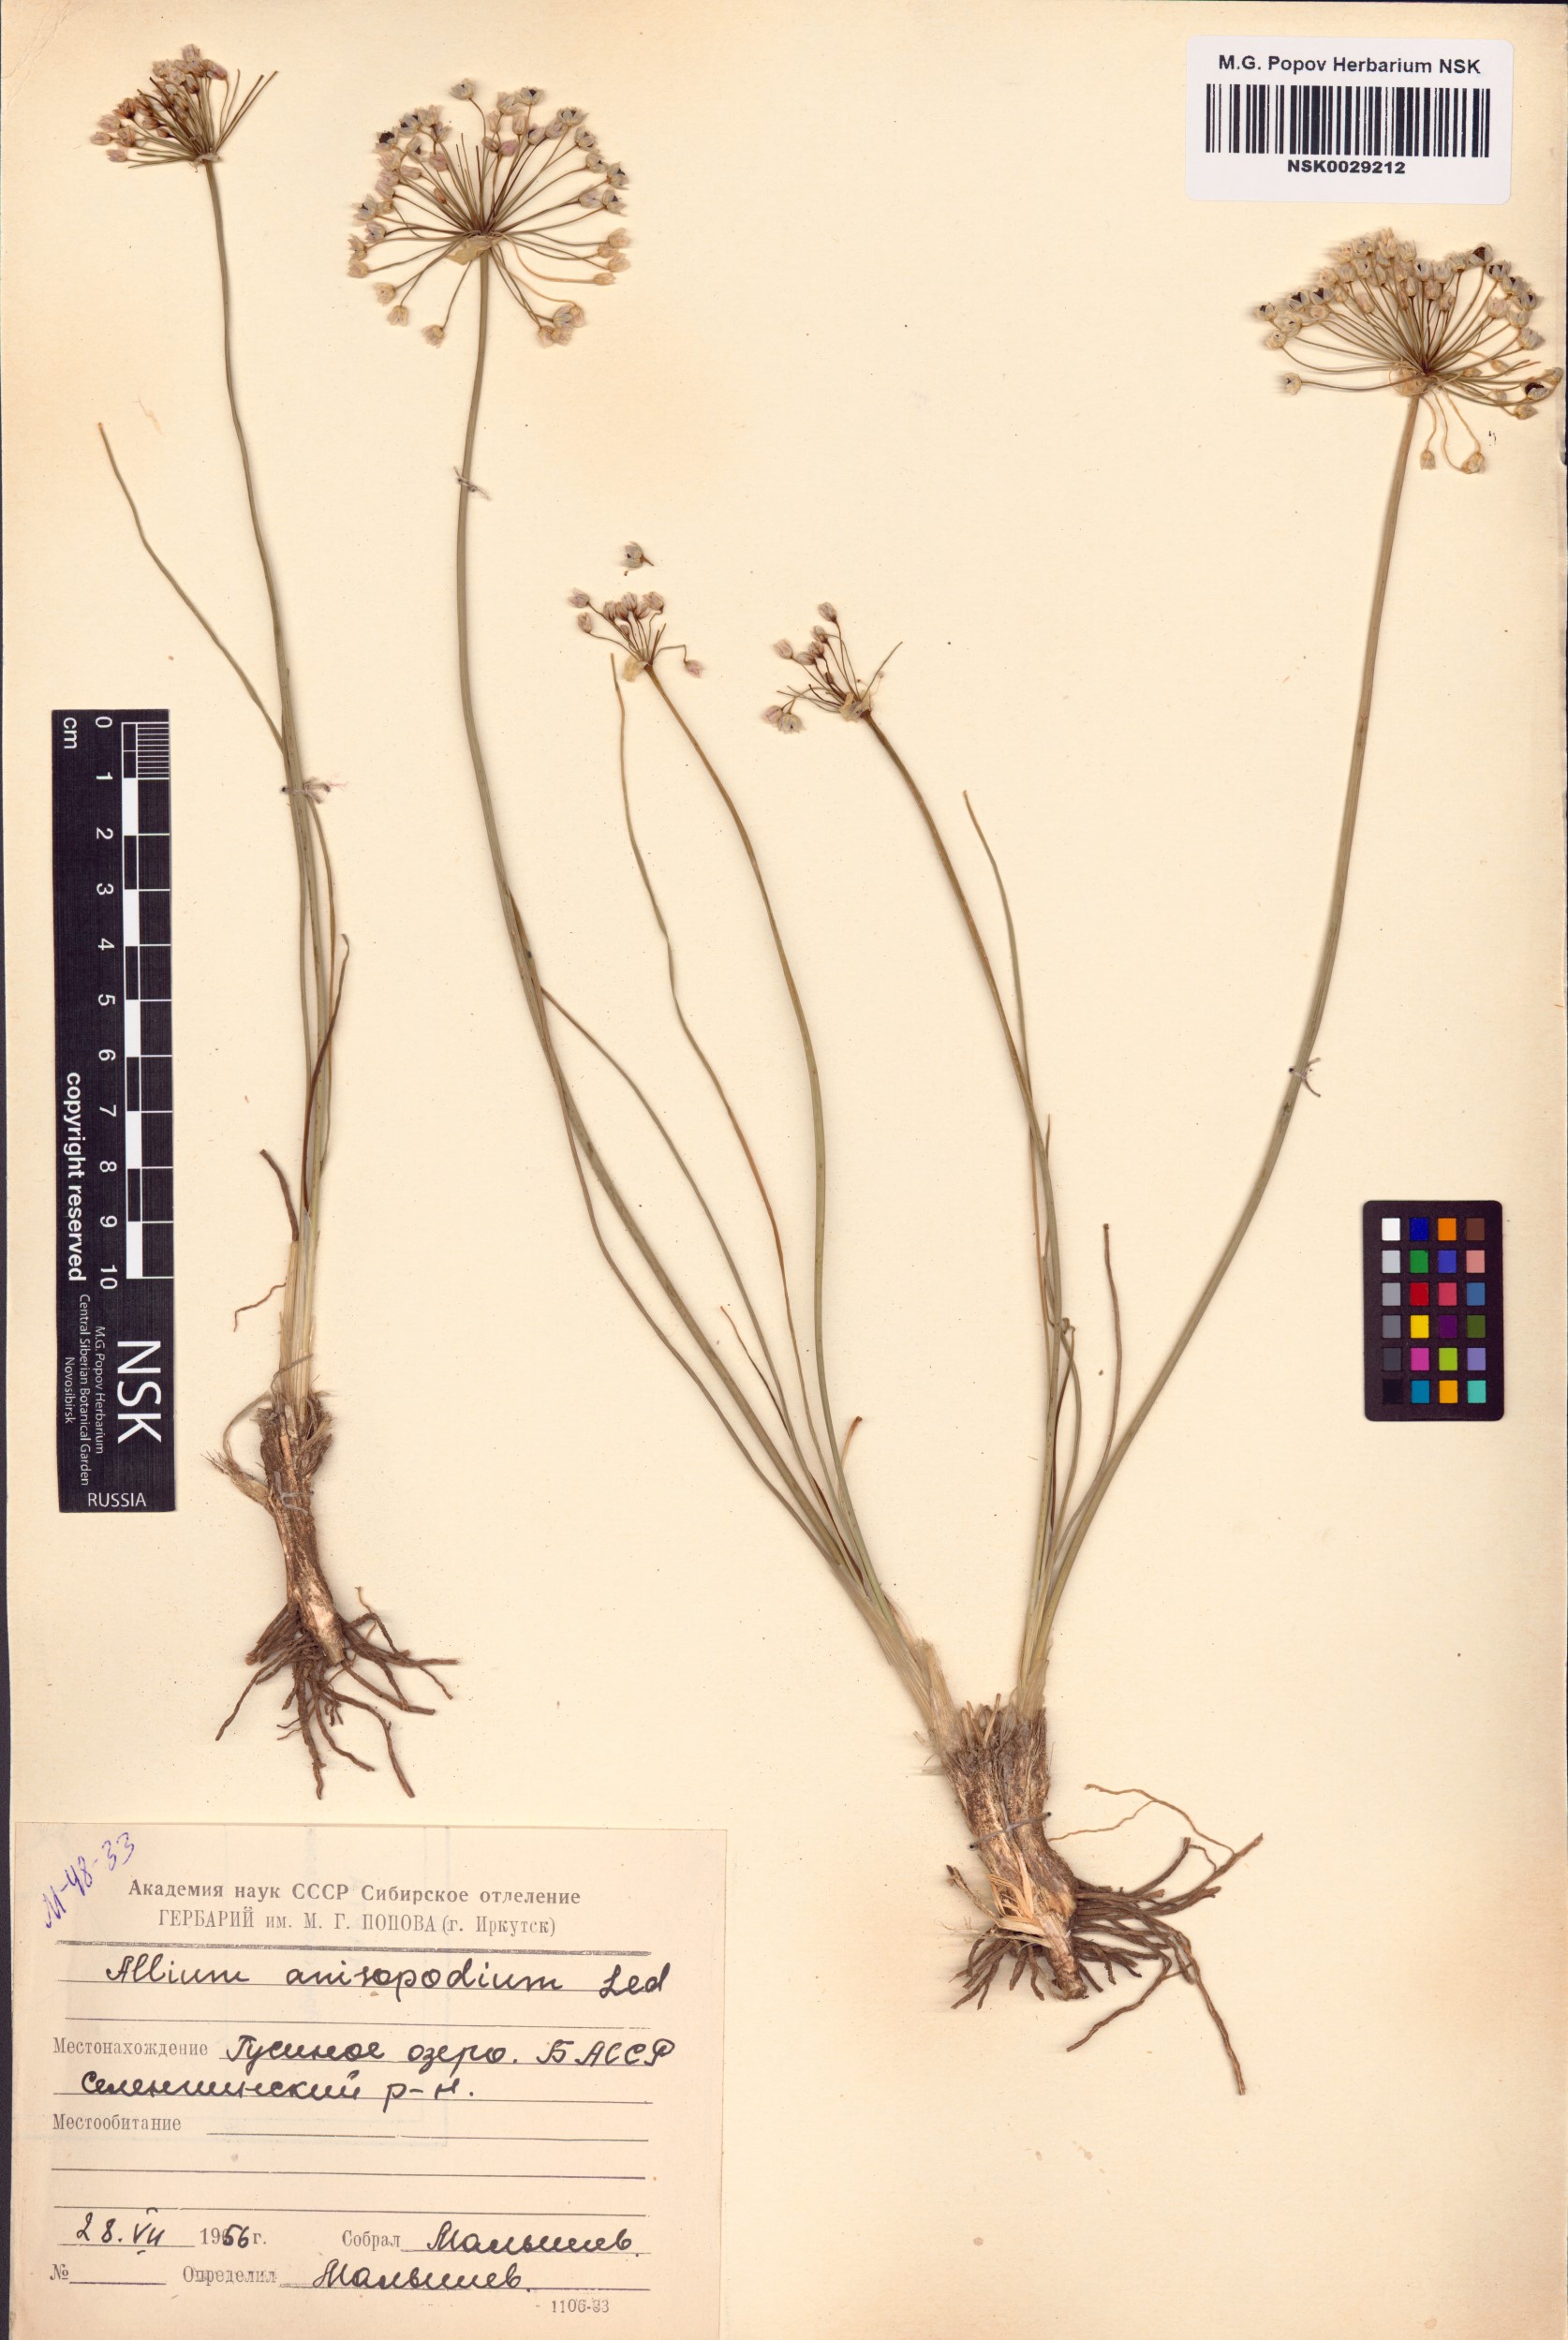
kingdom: Plantae
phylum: Tracheophyta
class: Liliopsida
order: Asparagales
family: Amaryllidaceae
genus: Allium
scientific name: Allium anisopodium
